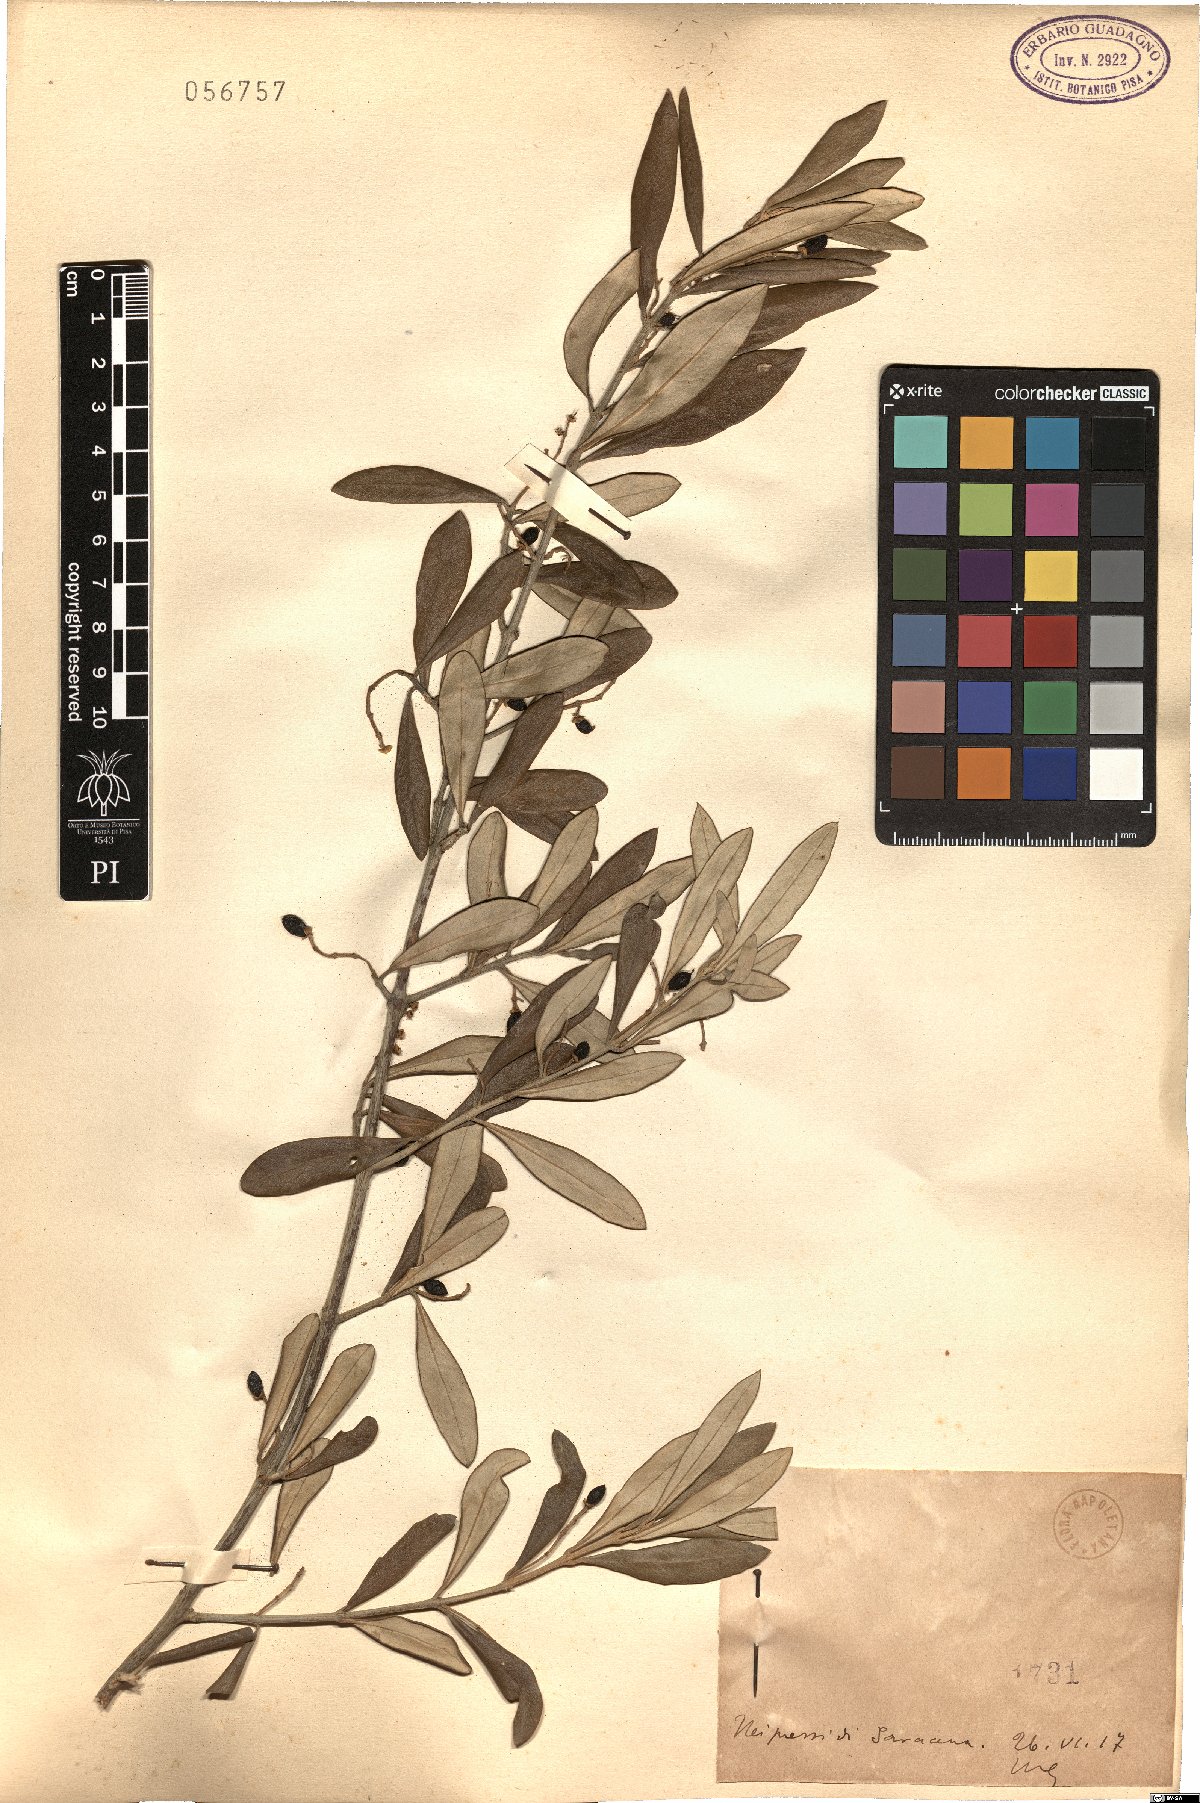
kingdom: Plantae
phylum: Tracheophyta
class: Magnoliopsida
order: Lamiales
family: Oleaceae
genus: Olea
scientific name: Olea
